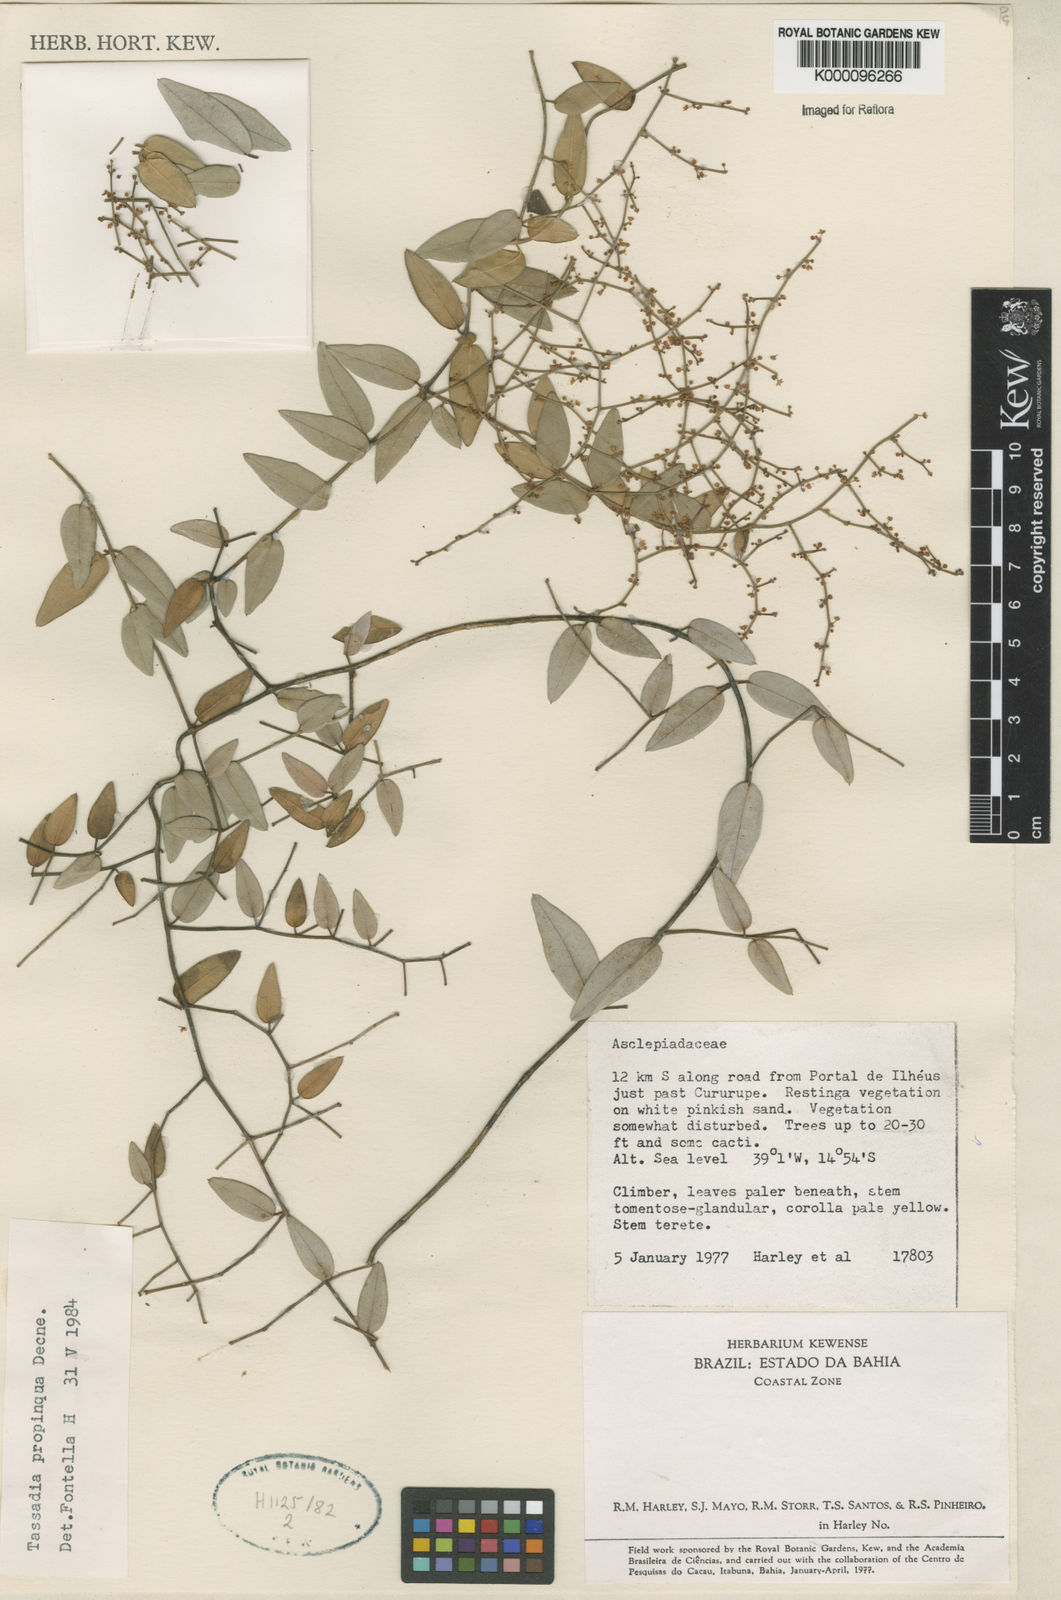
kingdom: Plantae
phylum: Tracheophyta
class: Magnoliopsida
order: Gentianales
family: Apocynaceae
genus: Tassadia
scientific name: Tassadia propinqua
